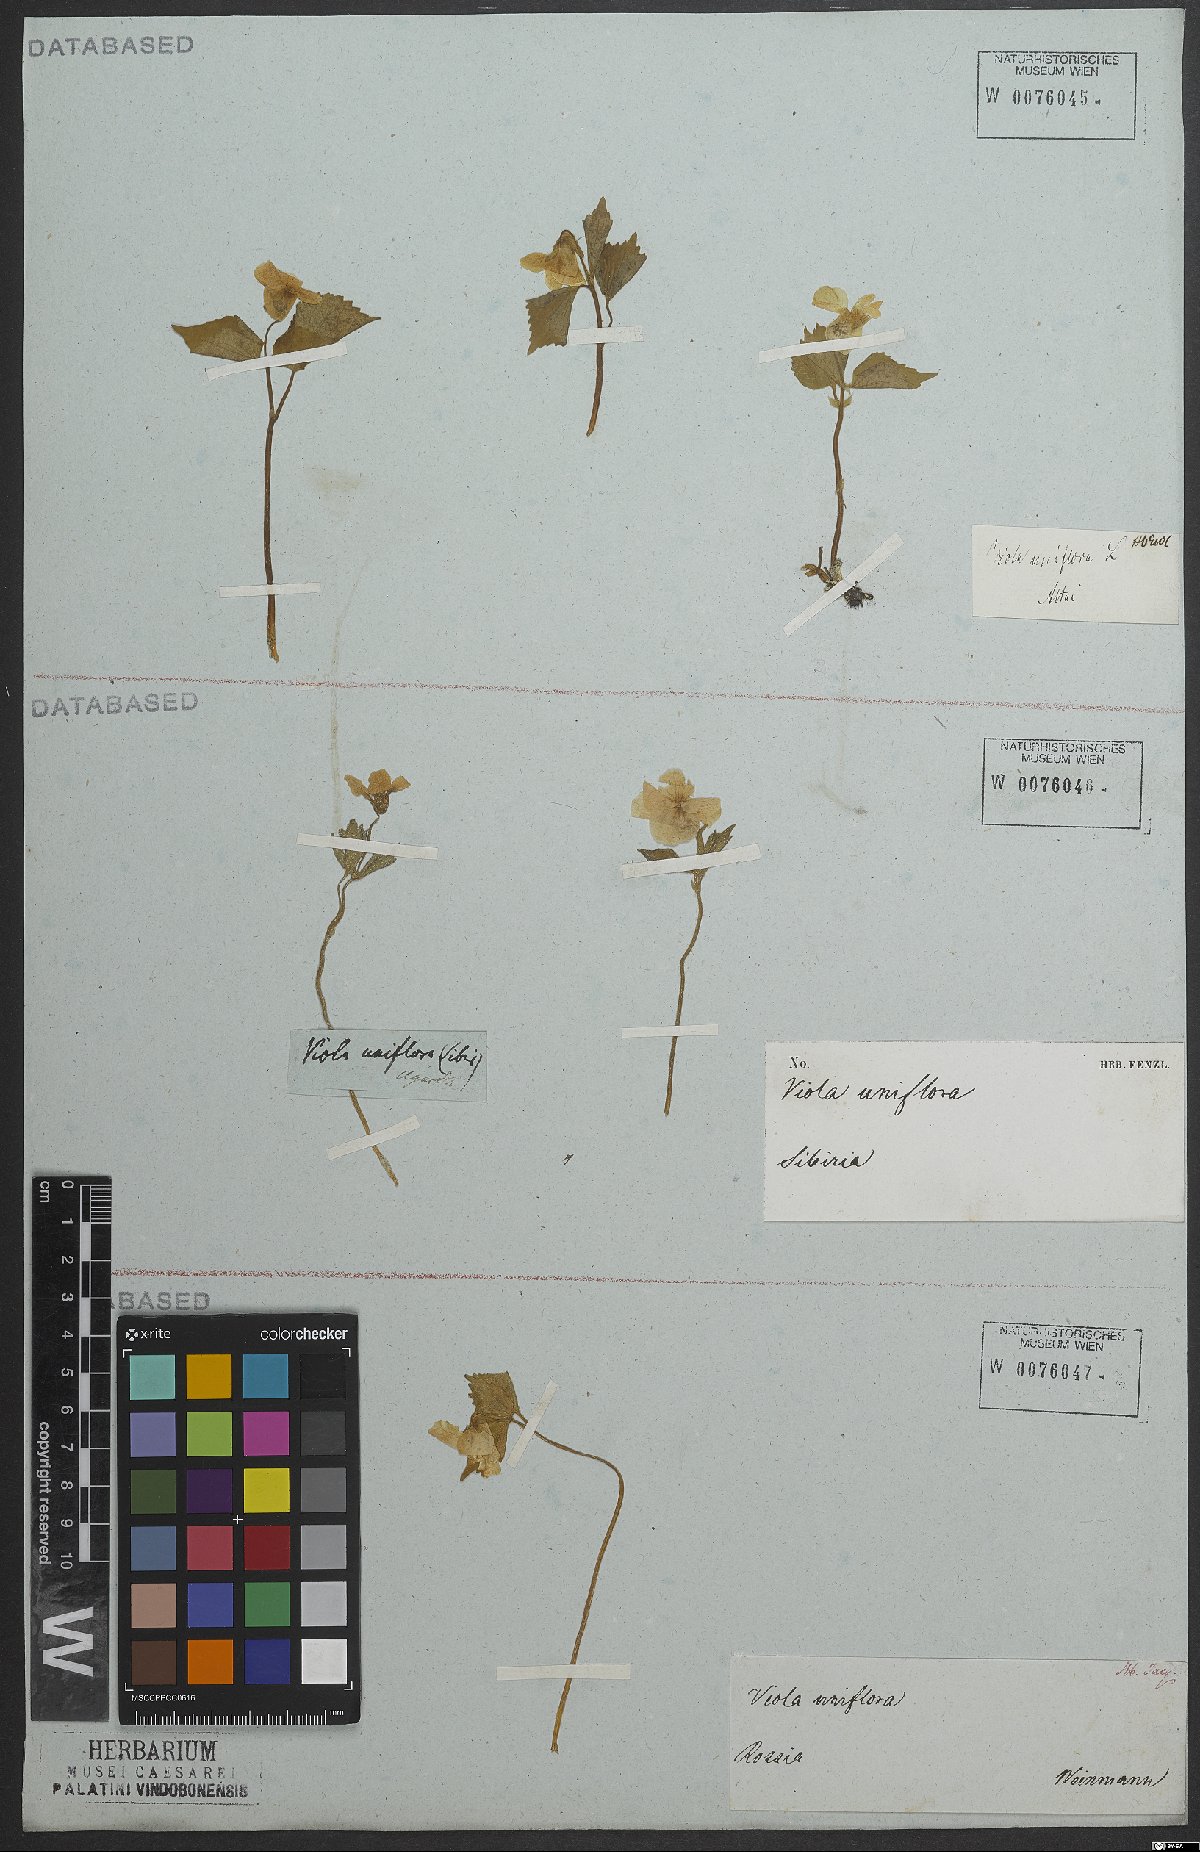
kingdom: Plantae
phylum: Tracheophyta
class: Magnoliopsida
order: Malpighiales
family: Violaceae
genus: Viola
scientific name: Viola uniflora
